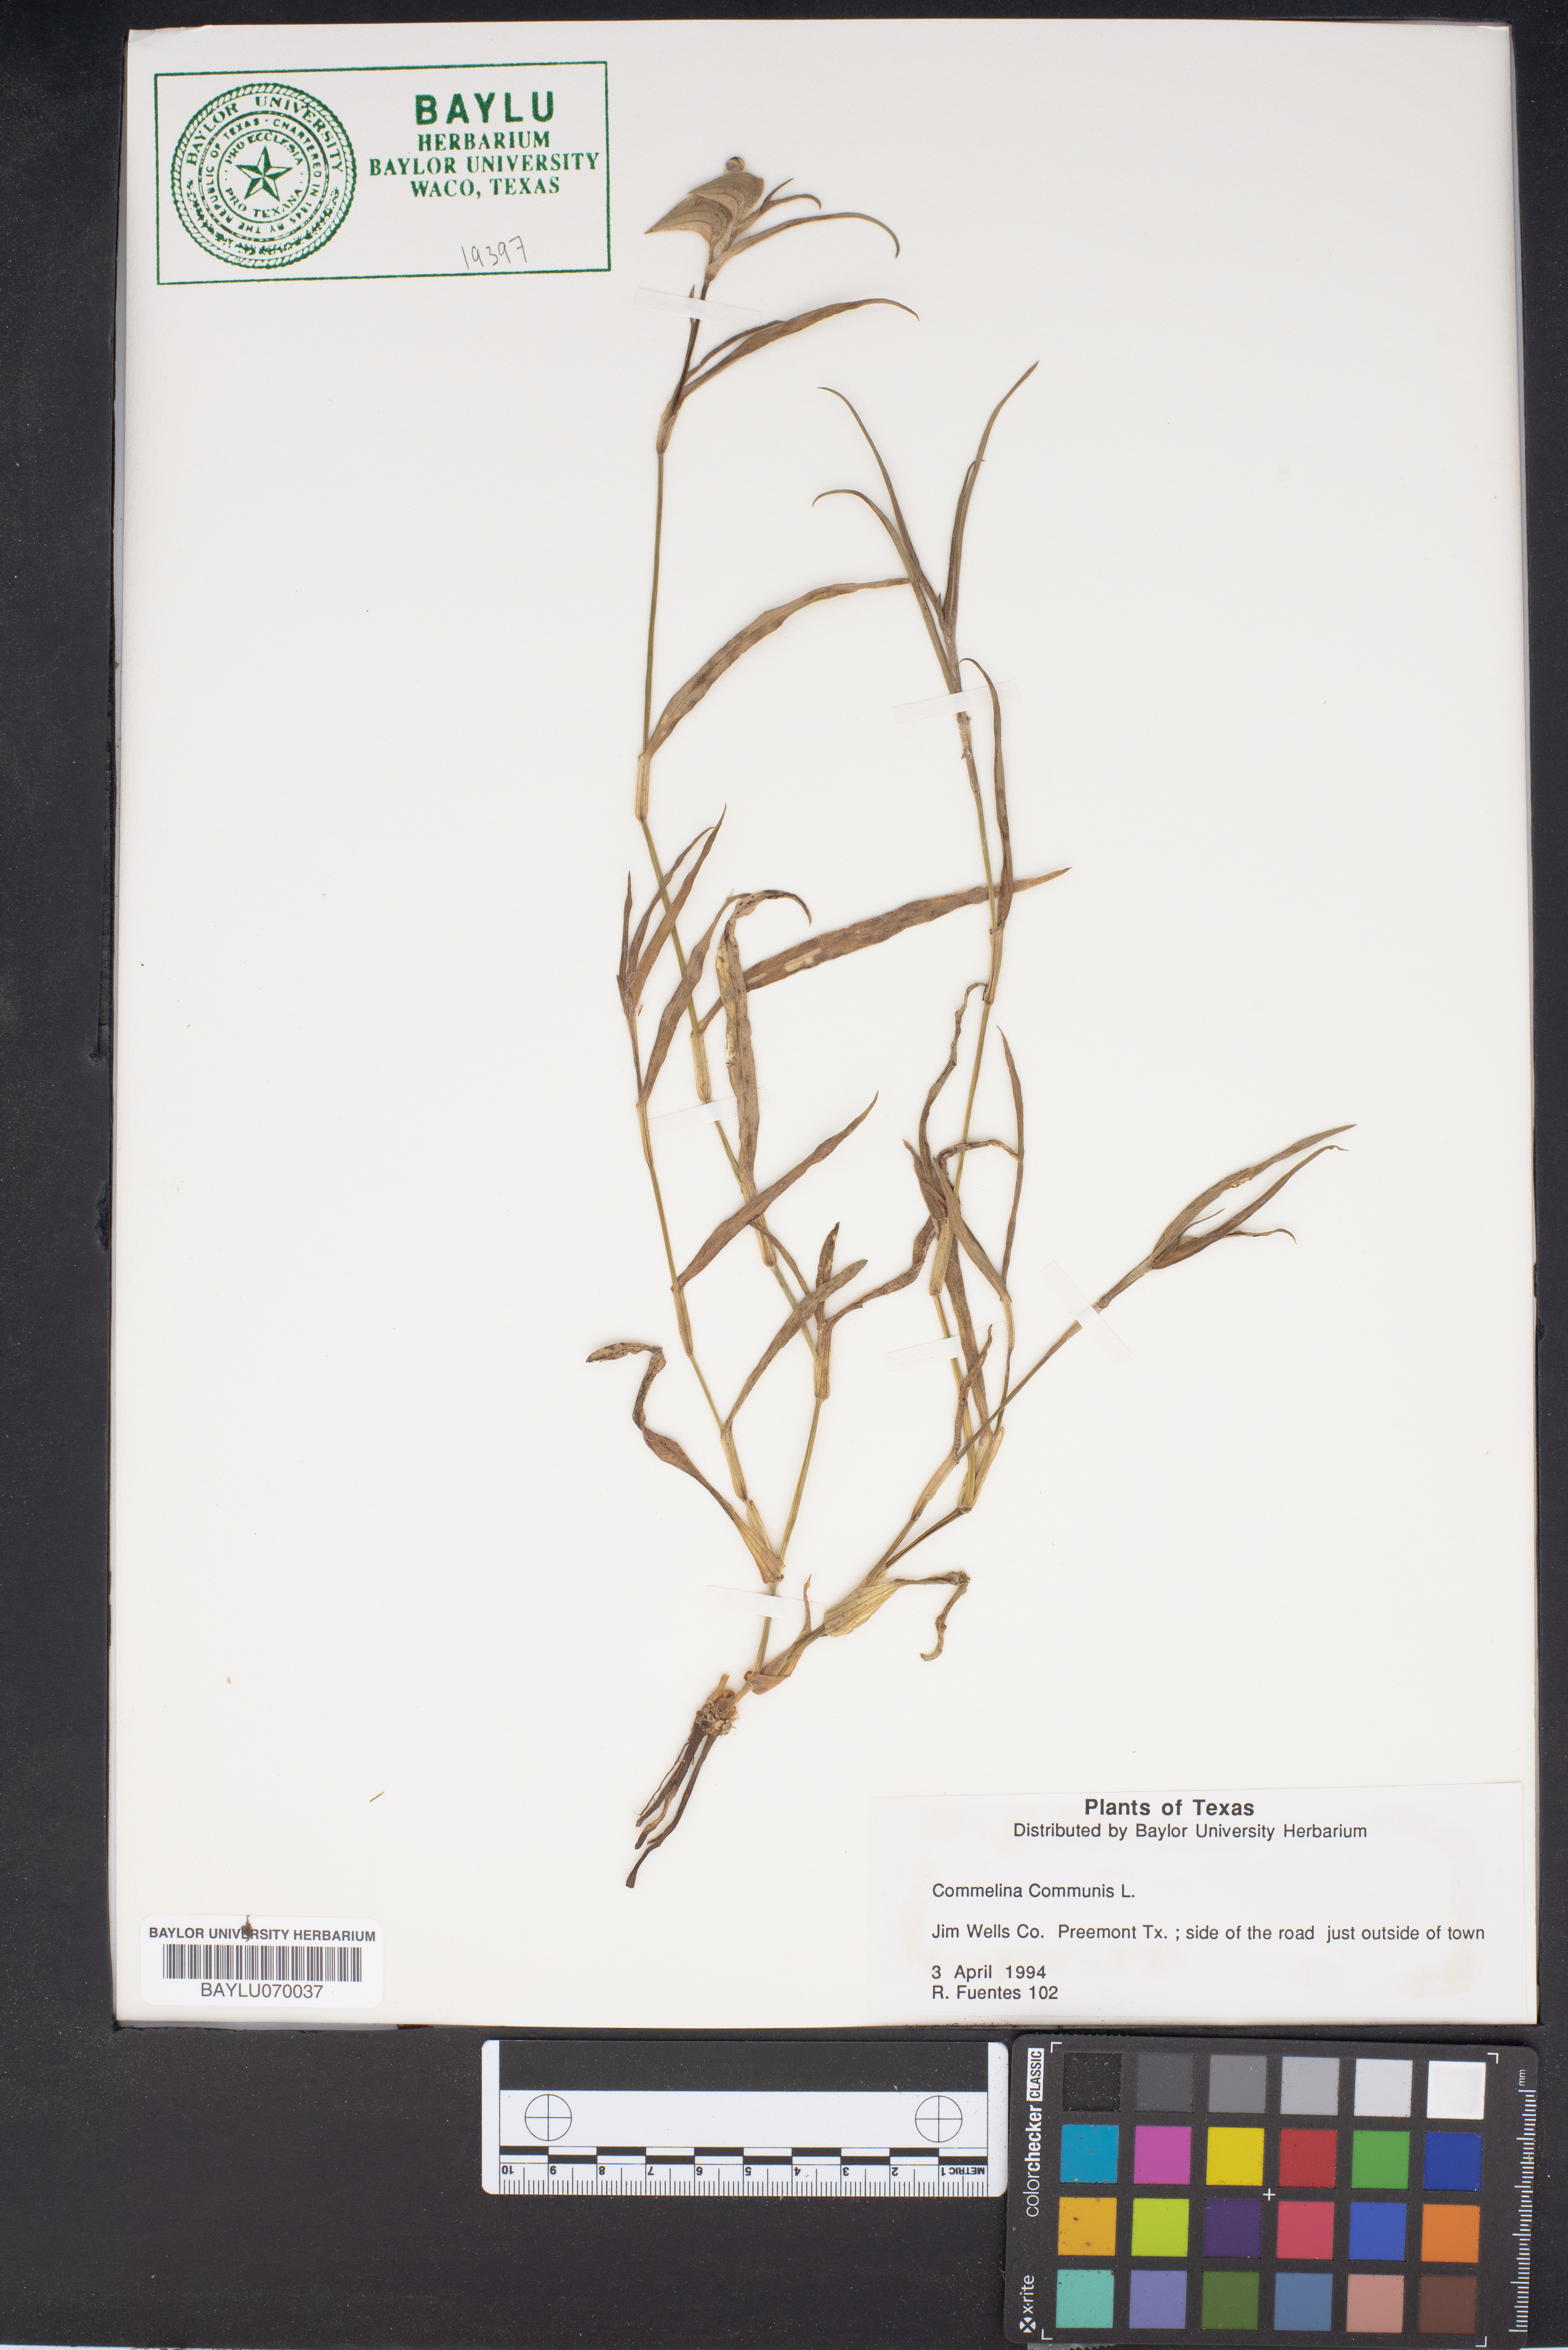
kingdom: Plantae
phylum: Tracheophyta
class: Liliopsida
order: Commelinales
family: Commelinaceae
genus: Commelina
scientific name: Commelina communis
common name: Asiatic dayflower
